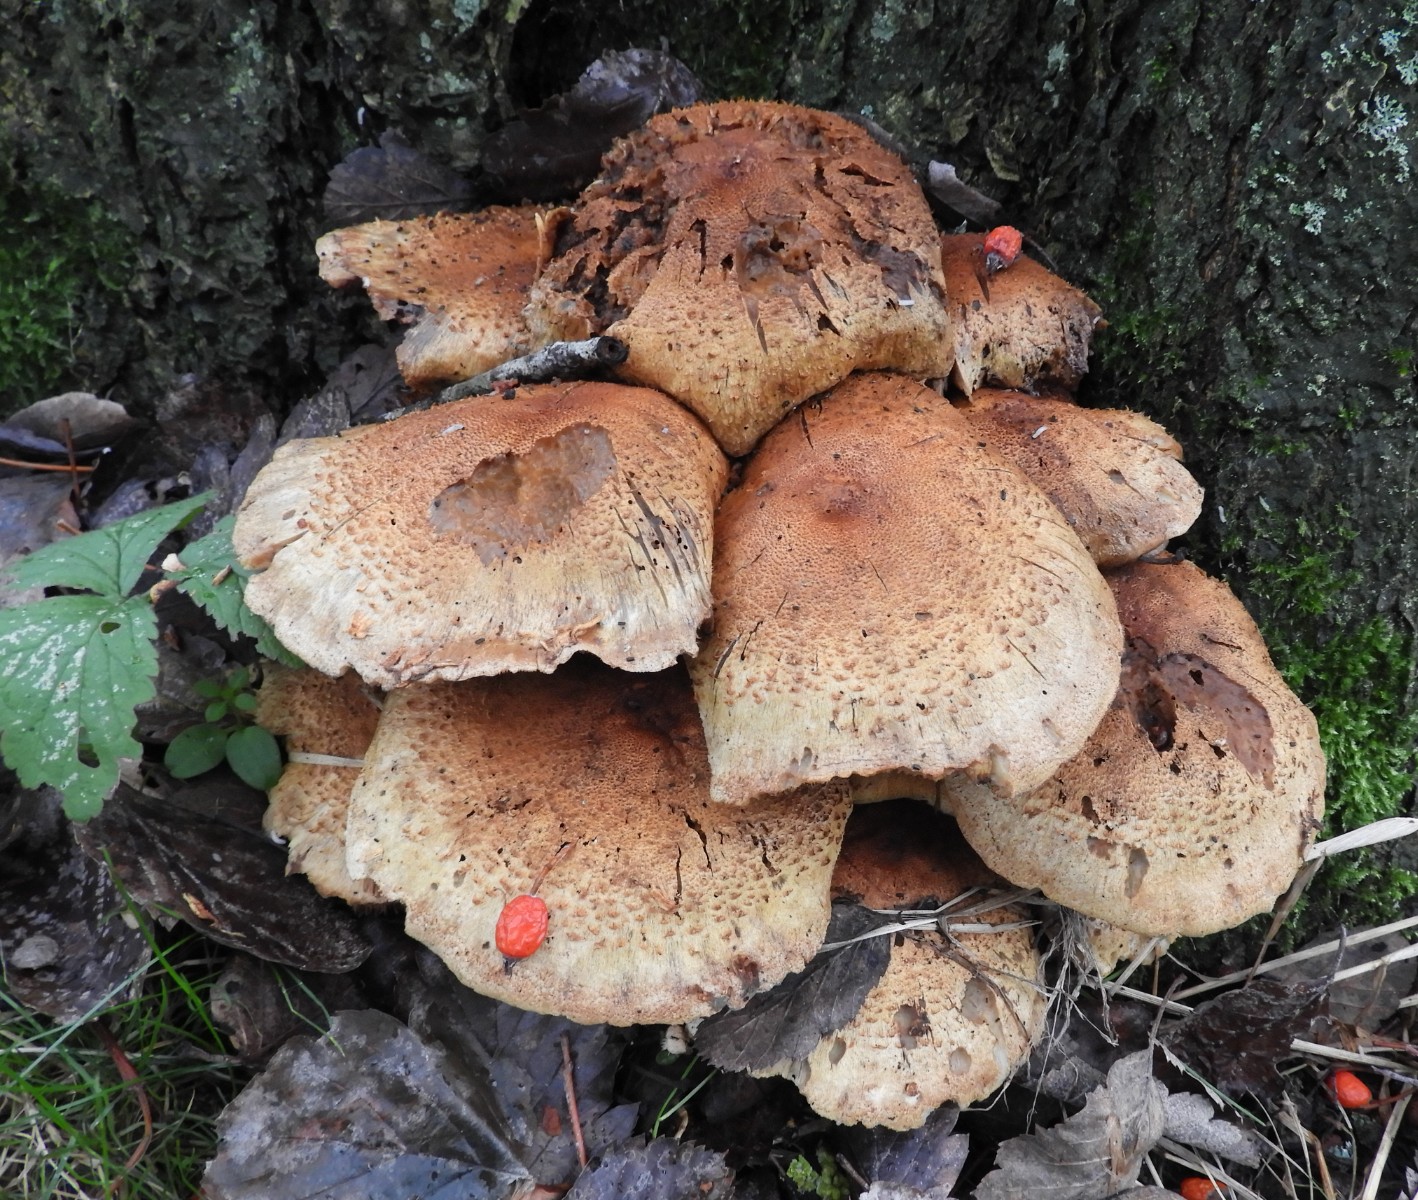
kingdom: Fungi
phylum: Basidiomycota
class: Agaricomycetes
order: Agaricales
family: Strophariaceae
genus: Pholiota
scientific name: Pholiota squarrosa
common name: krumskællet skælhat
